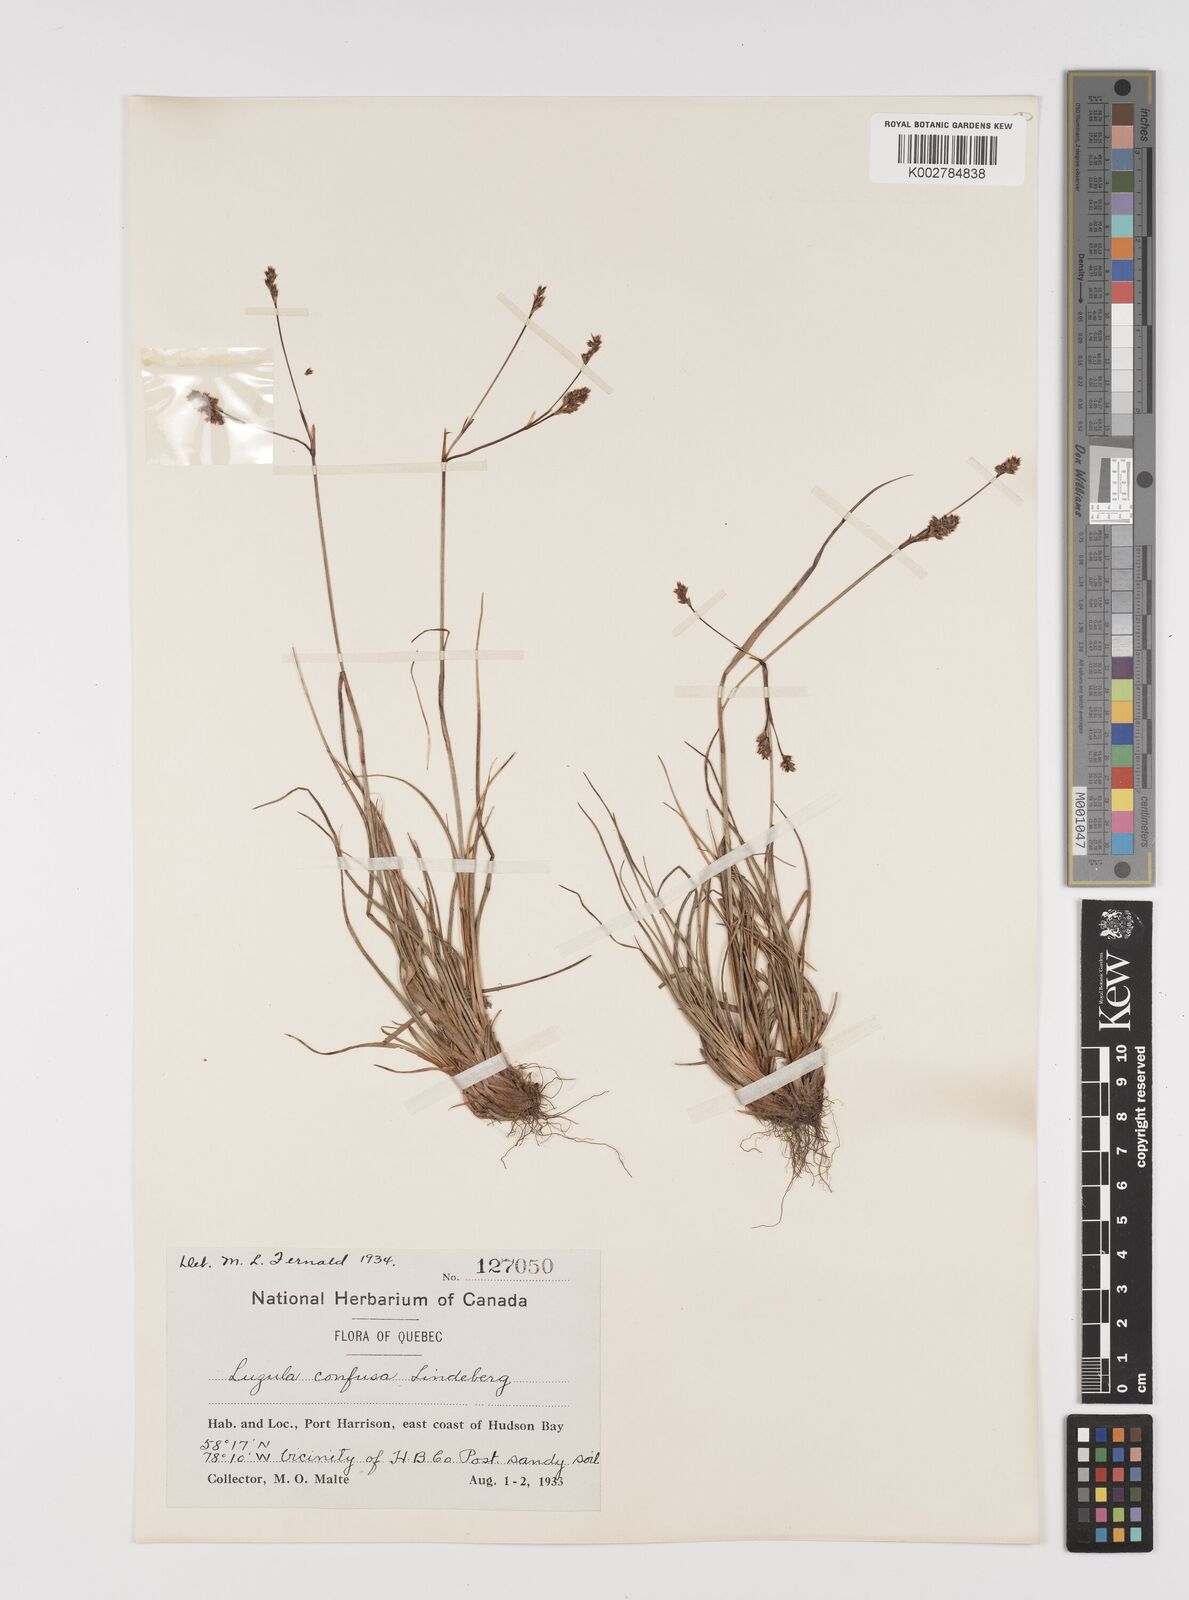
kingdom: Plantae
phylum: Tracheophyta
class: Liliopsida
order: Poales
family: Juncaceae
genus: Luzula
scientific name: Luzula confusa
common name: Northern wood rush
